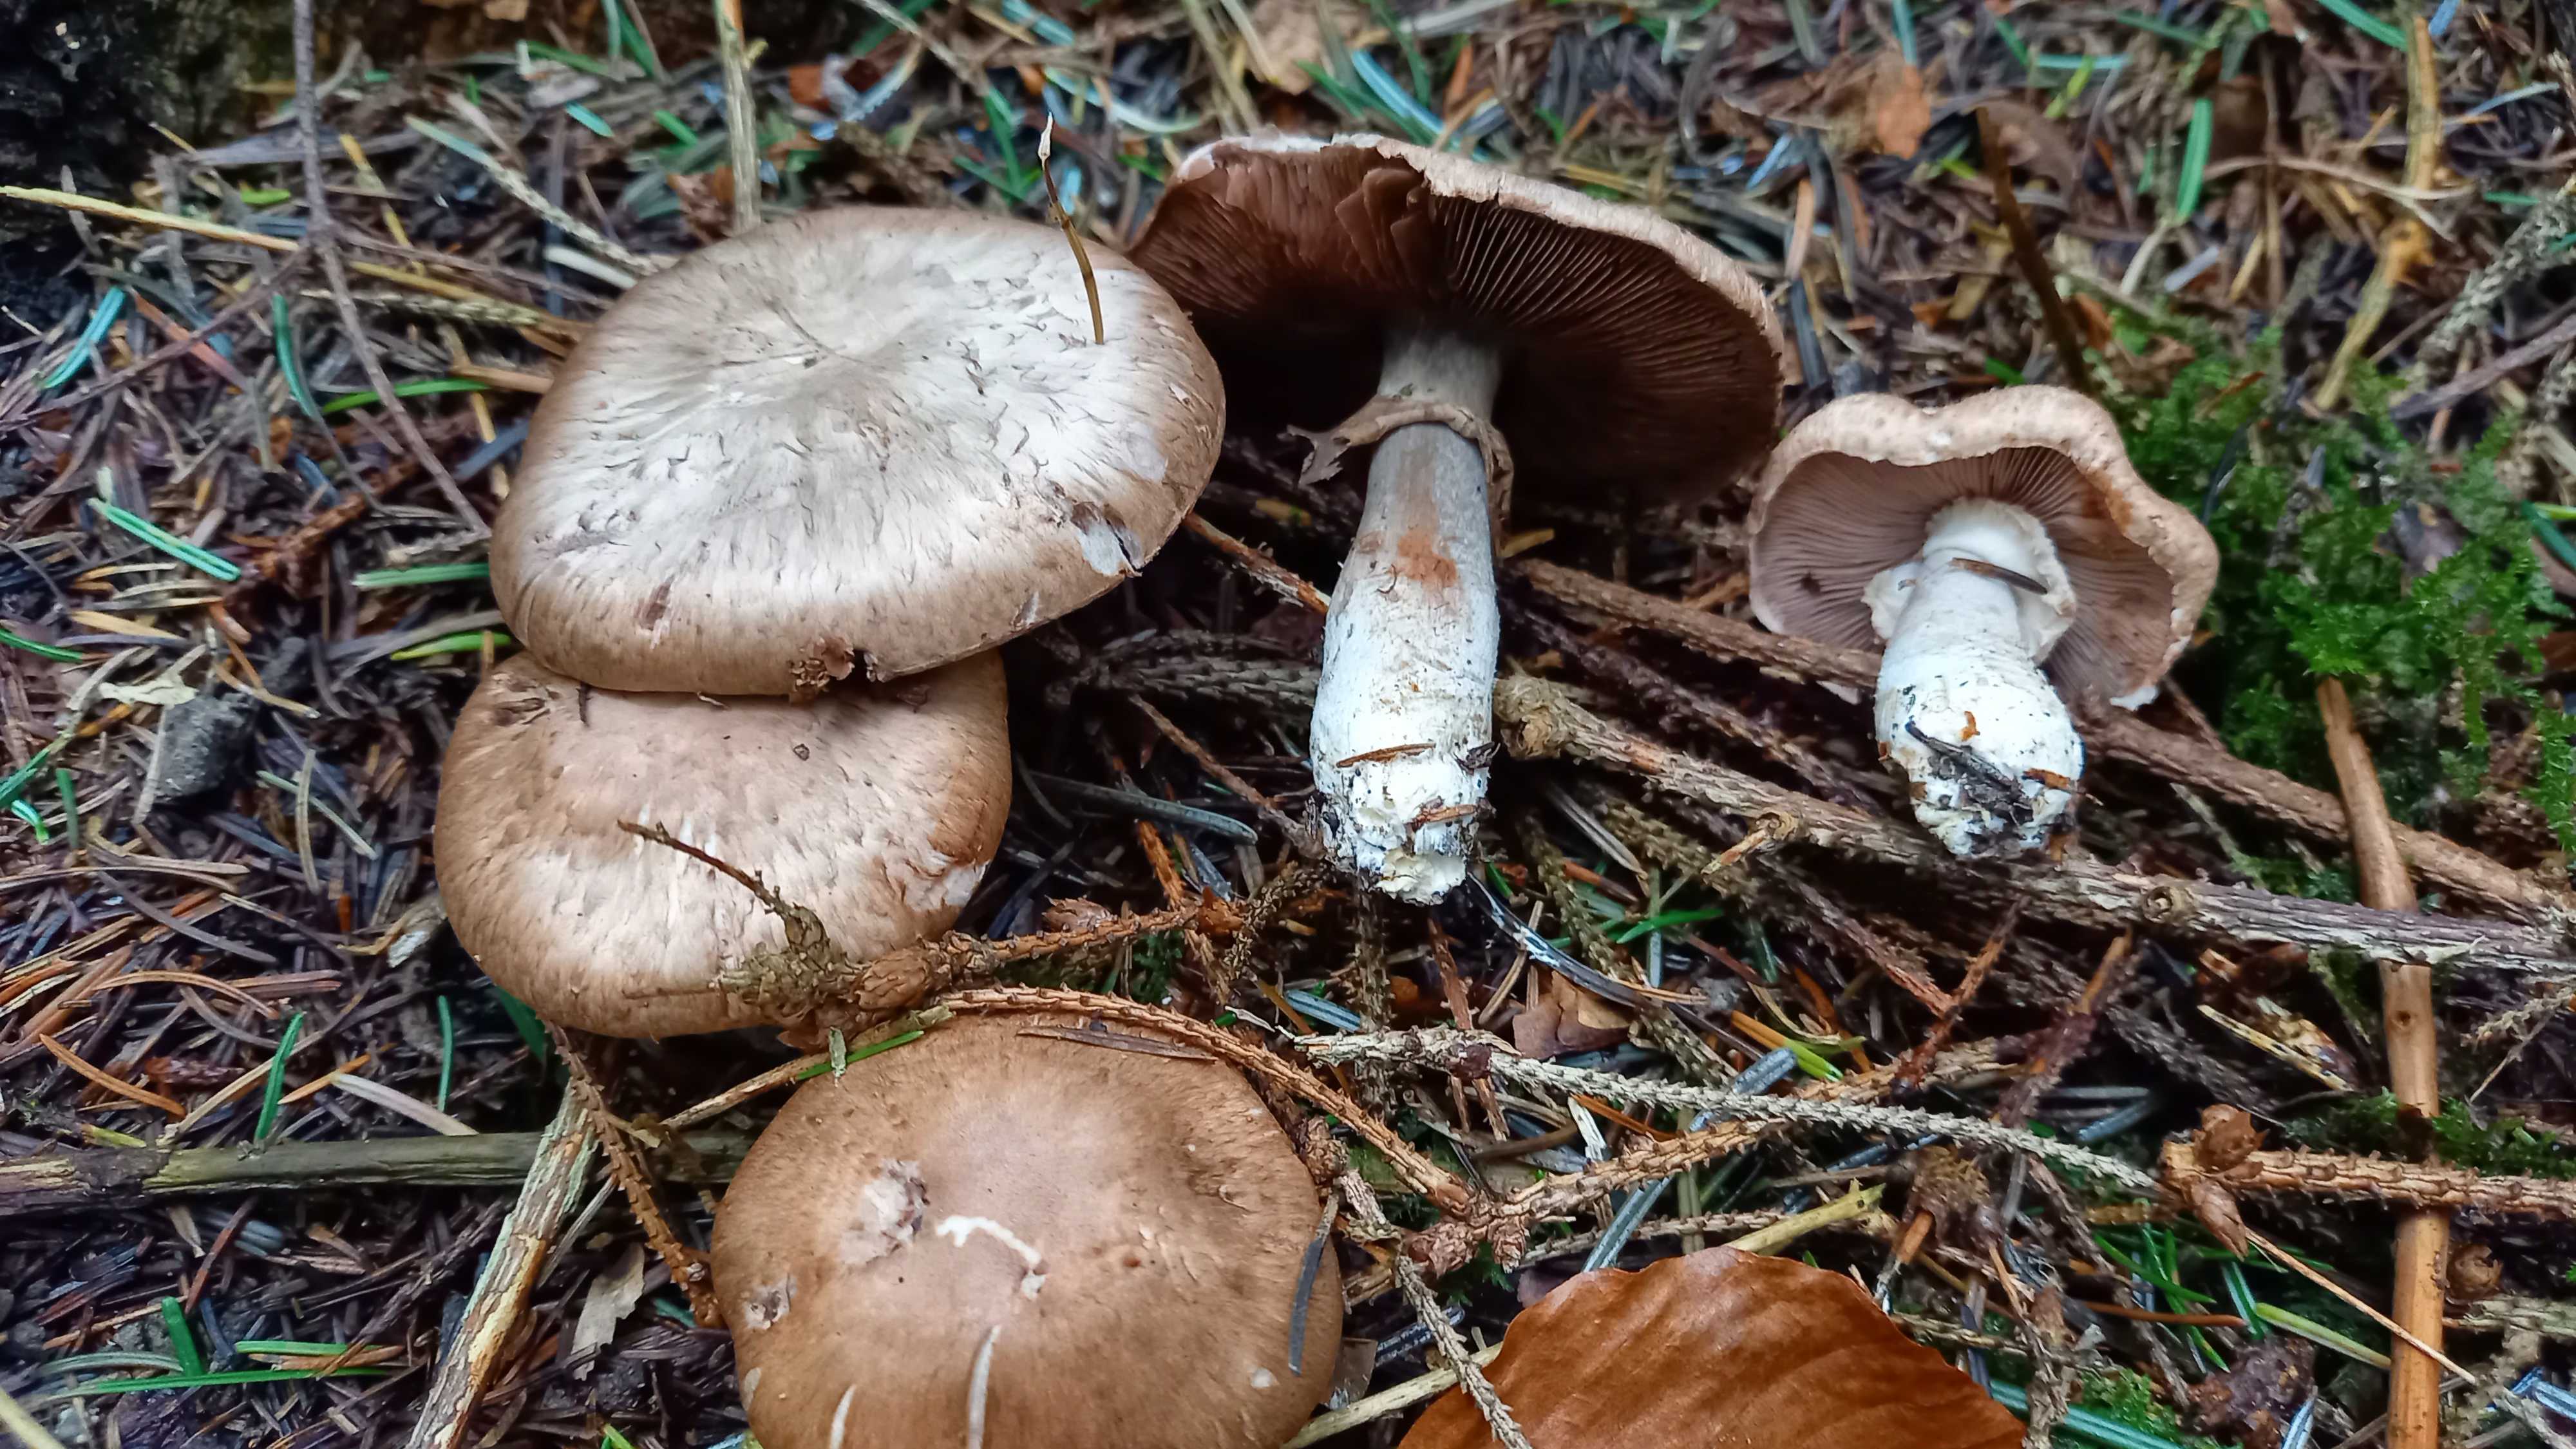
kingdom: Fungi
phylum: Basidiomycota
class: Agaricomycetes
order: Agaricales
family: Agaricaceae
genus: Agaricus
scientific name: Agaricus
